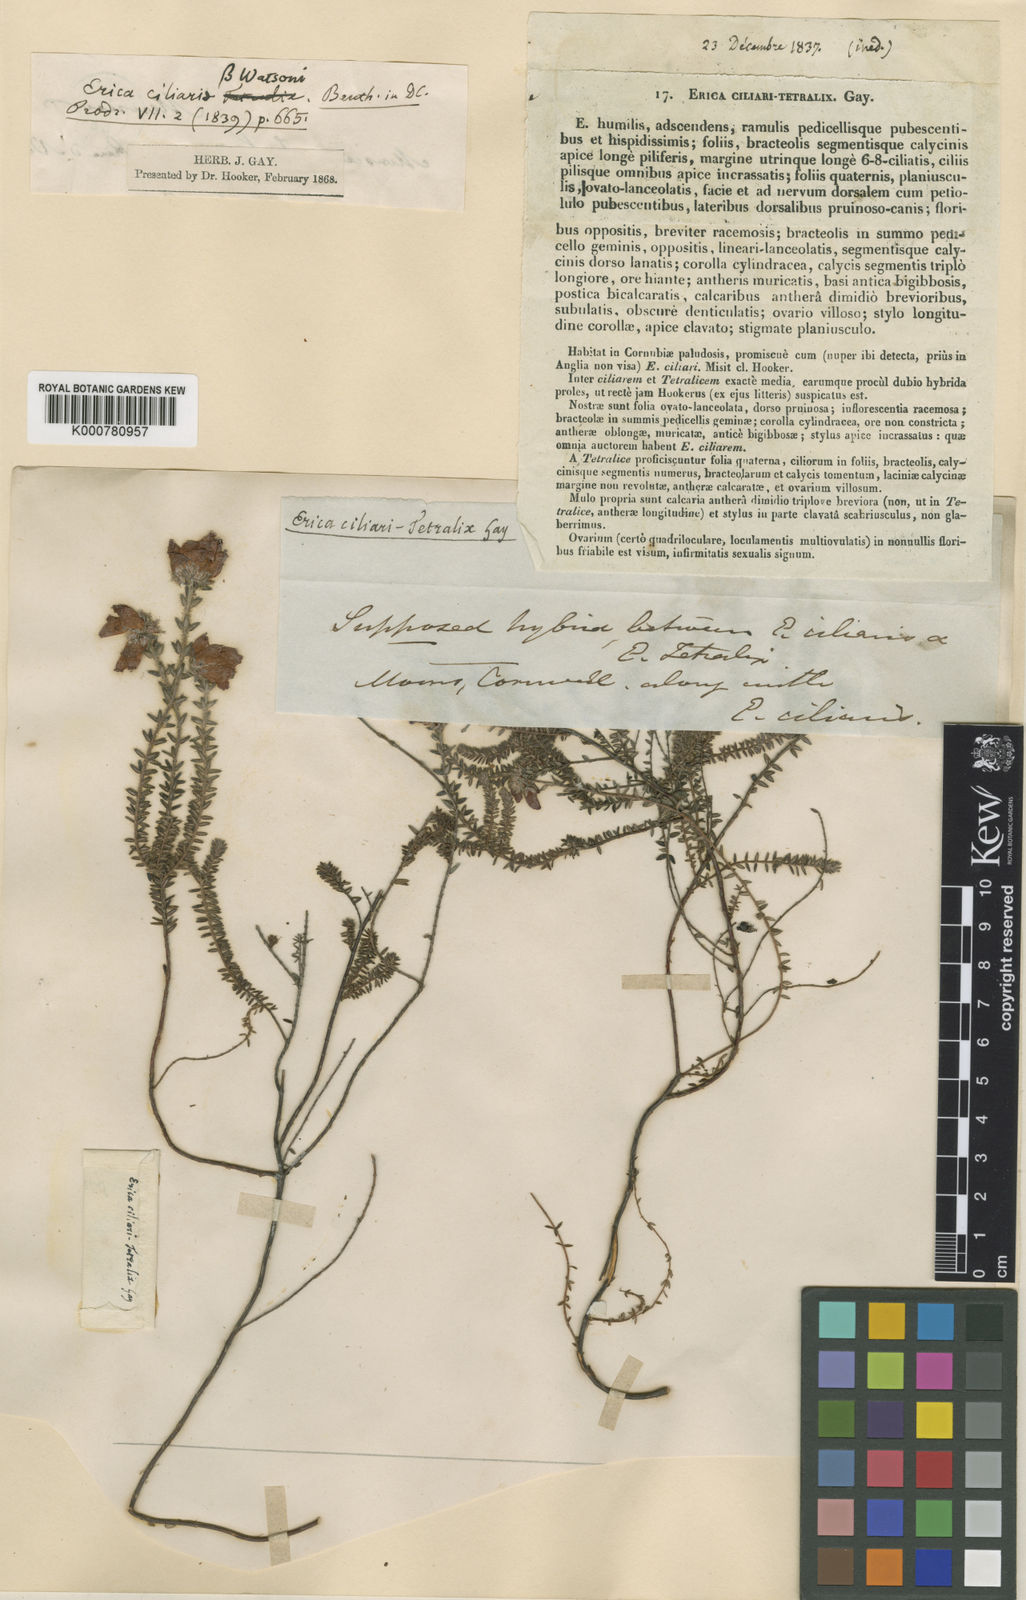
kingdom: Plantae
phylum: Tracheophyta
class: Magnoliopsida
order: Ericales
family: Ericaceae
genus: Erica
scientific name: Erica watsonii
